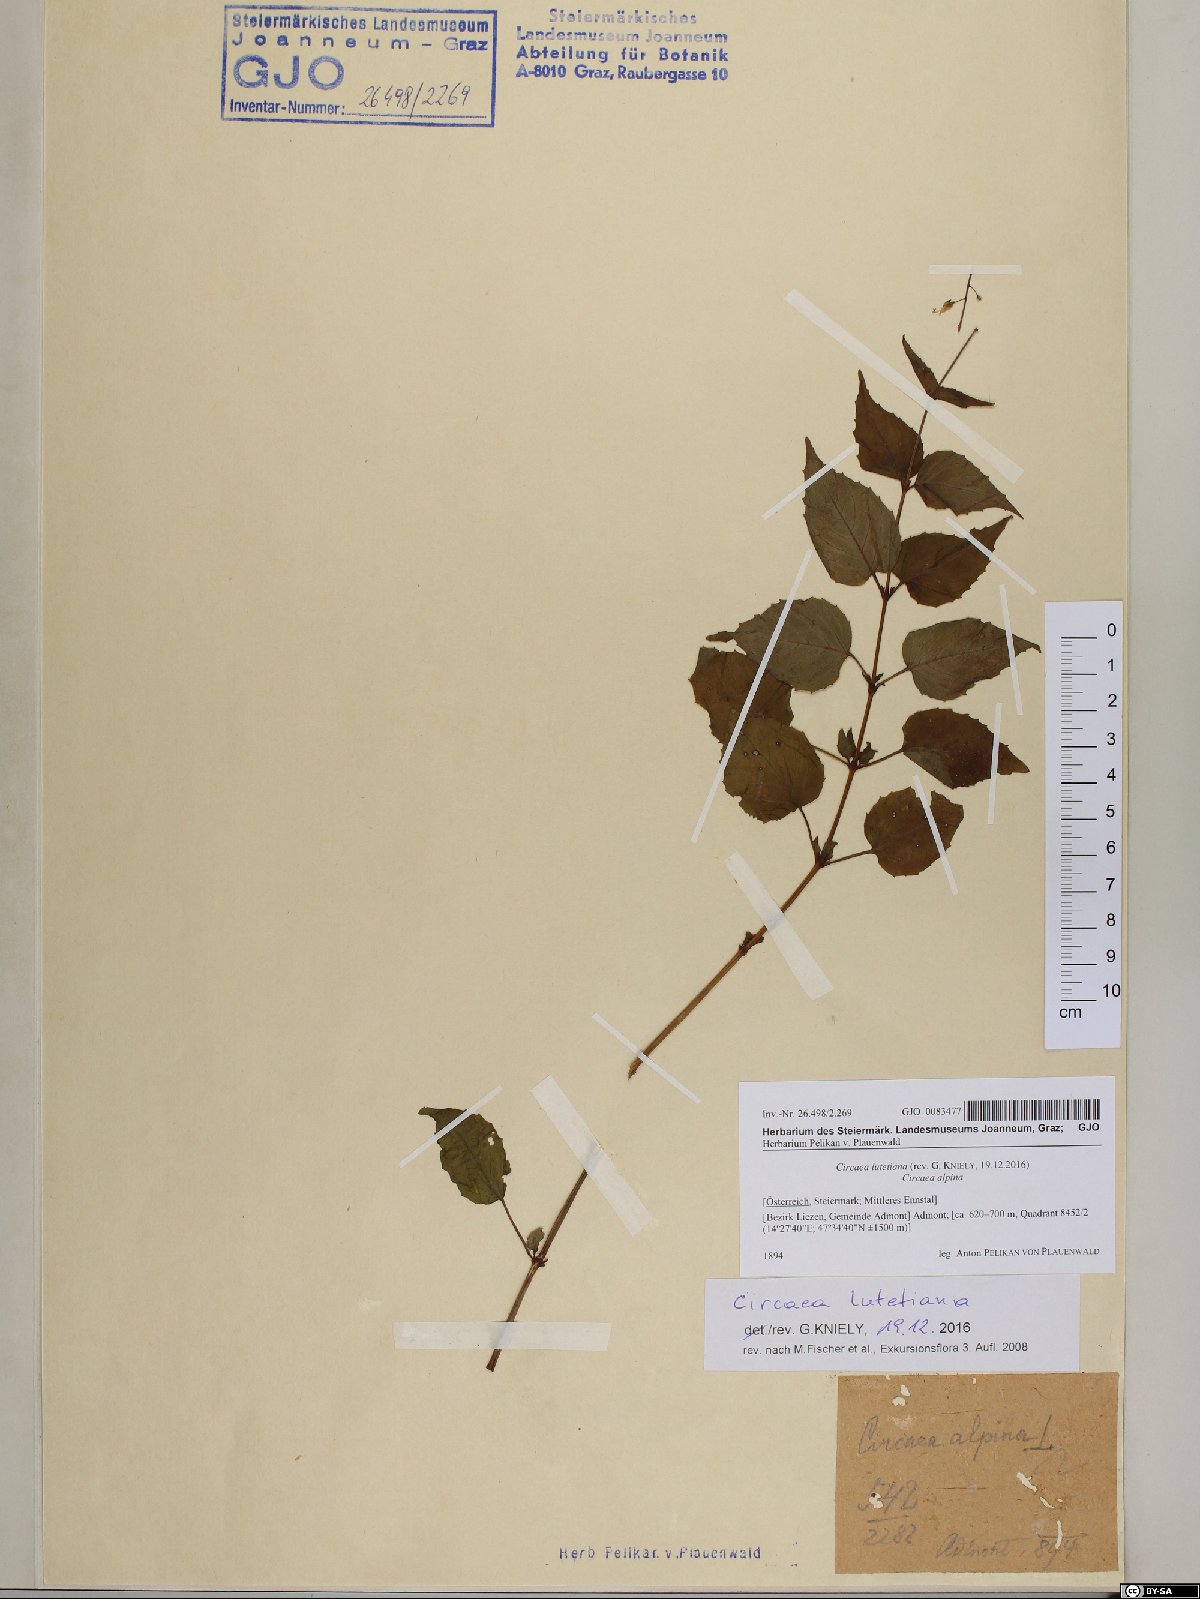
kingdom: Plantae
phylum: Tracheophyta
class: Magnoliopsida
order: Myrtales
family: Onagraceae
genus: Circaea
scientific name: Circaea lutetiana
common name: Enchanter's-nightshade
